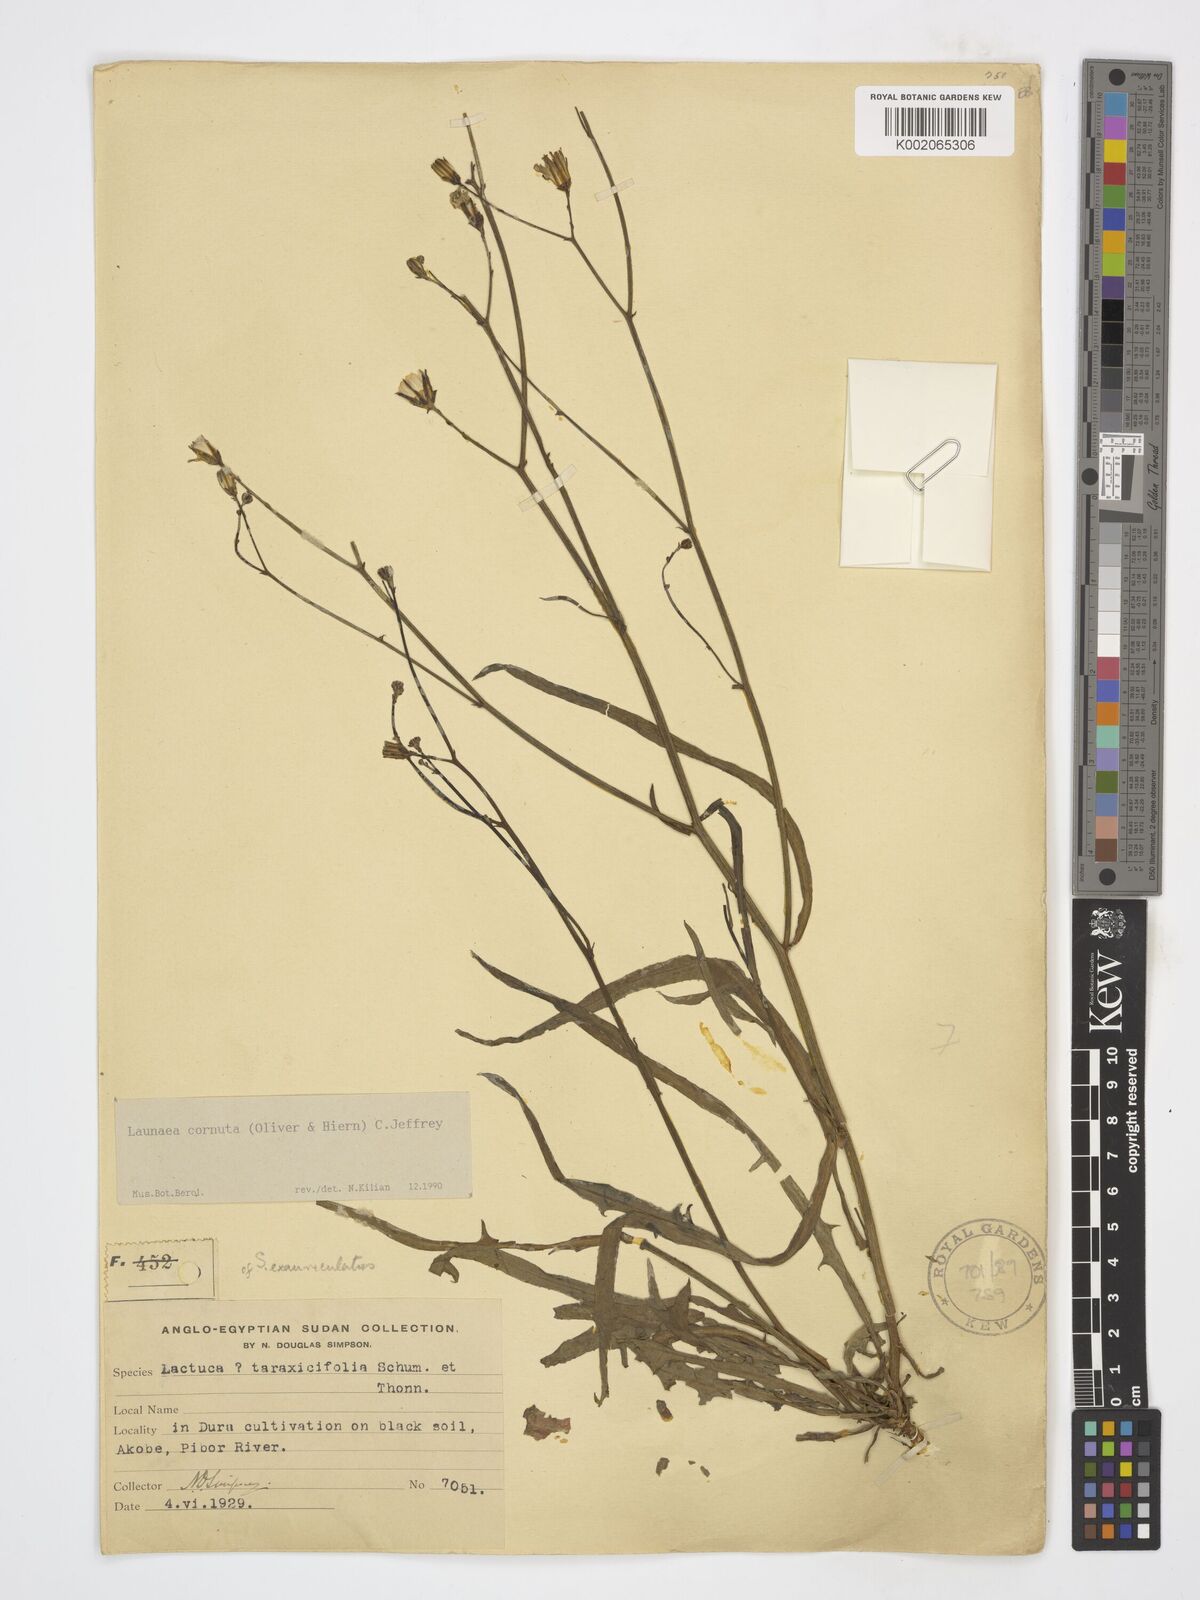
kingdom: Plantae
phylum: Tracheophyta
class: Magnoliopsida
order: Asterales
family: Asteraceae
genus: Launaea
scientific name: Launaea cornuta
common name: Bitter-lettuce
